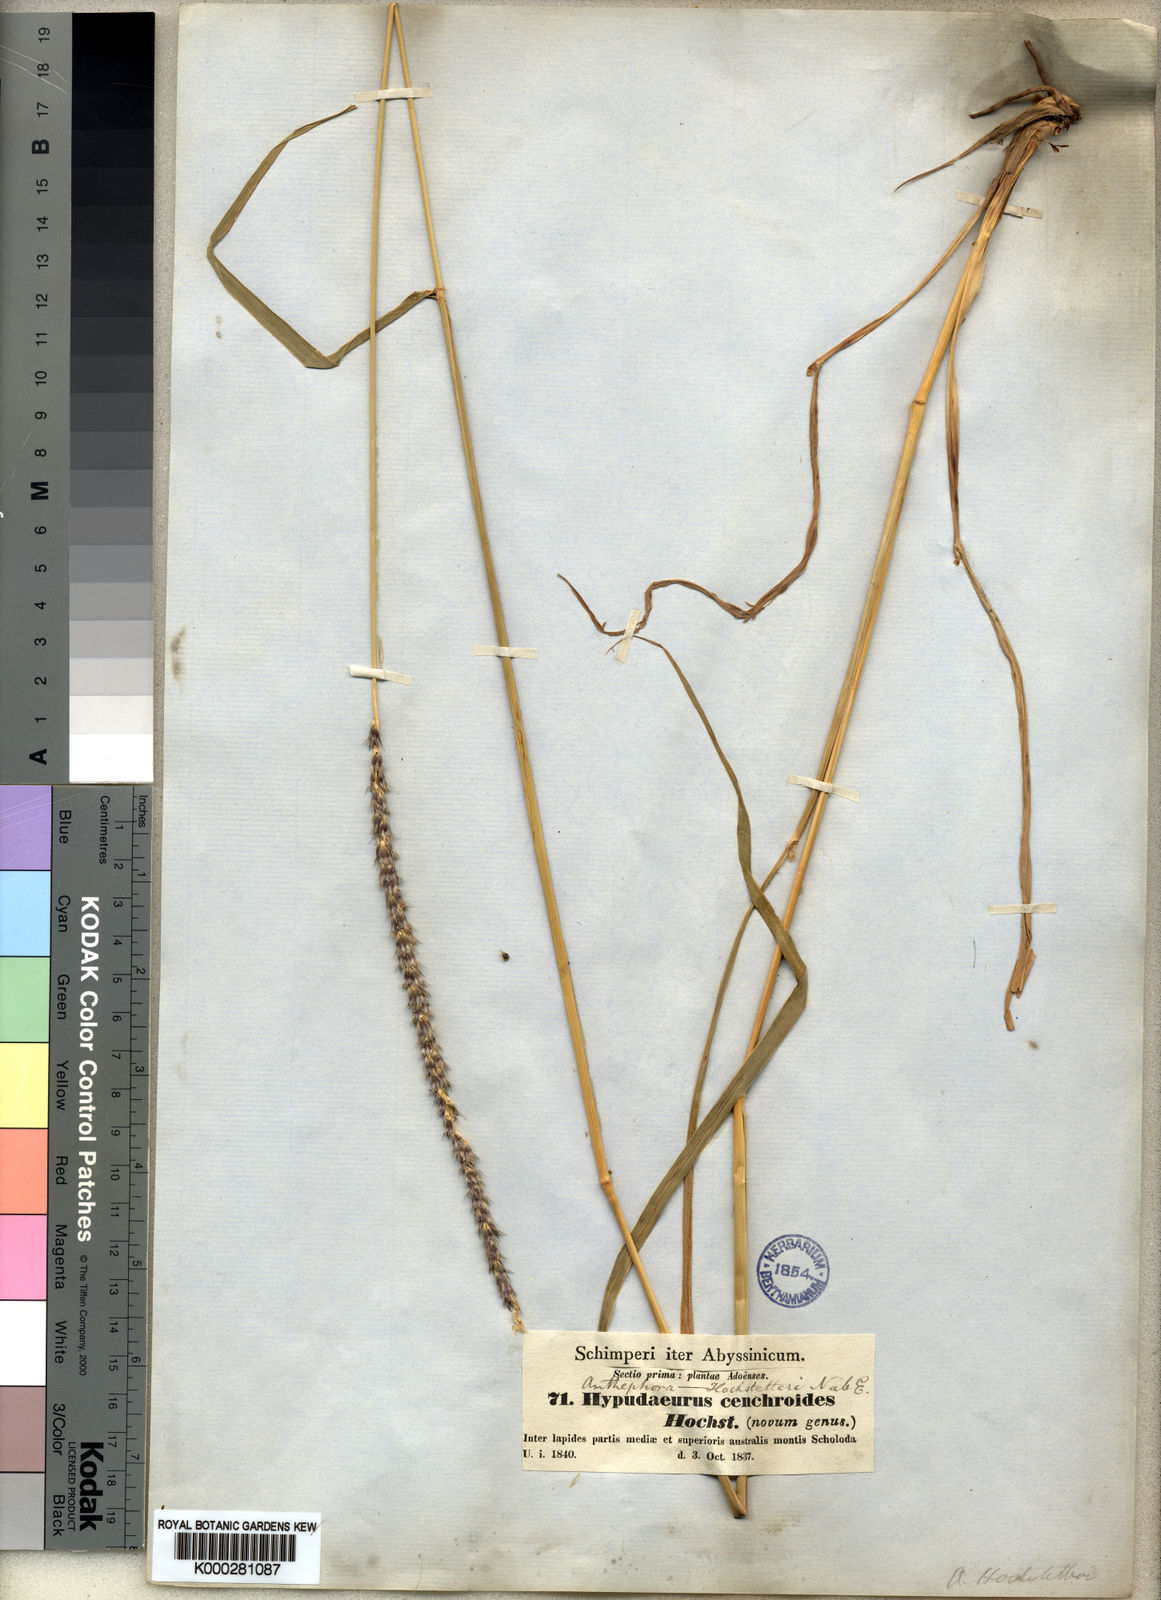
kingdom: Plantae
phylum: Tracheophyta
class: Liliopsida
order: Poales
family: Poaceae
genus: Anthephora
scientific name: Anthephora pubescens
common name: Wool grass
